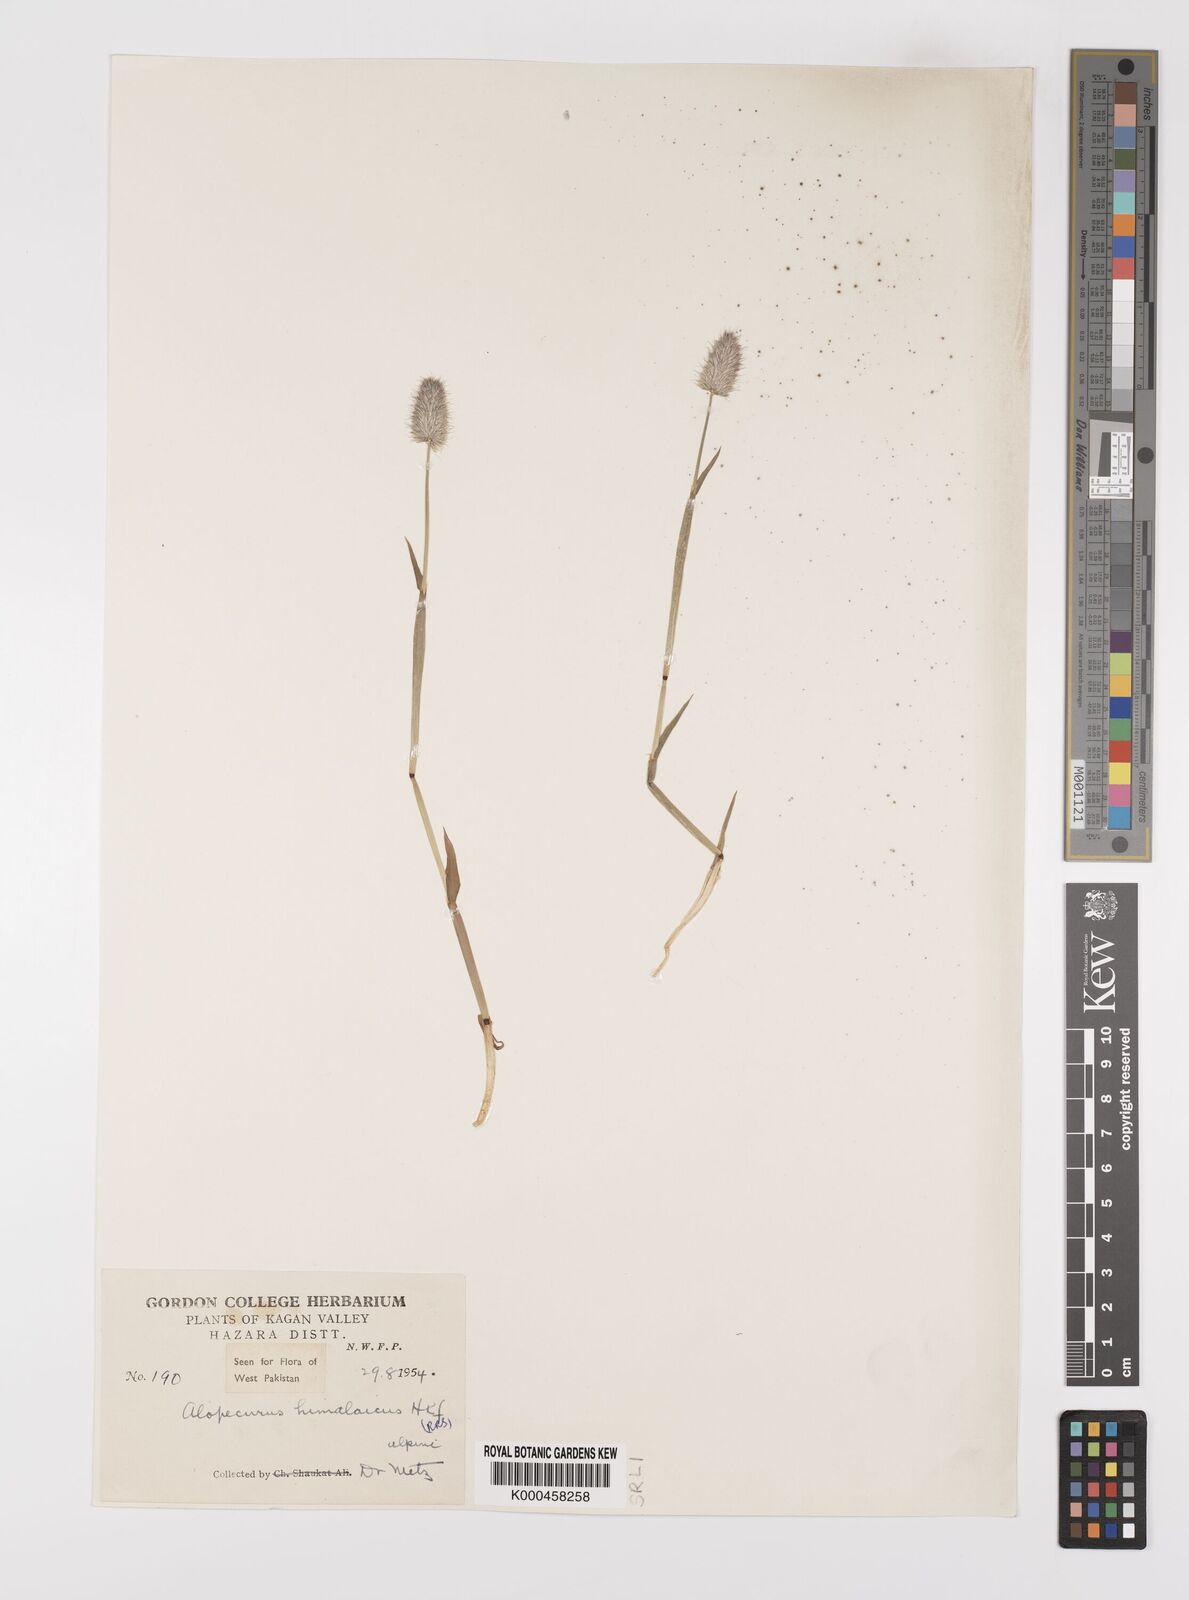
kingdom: Plantae
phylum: Tracheophyta
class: Liliopsida
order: Poales
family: Poaceae
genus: Alopecurus
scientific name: Alopecurus himalaicus
